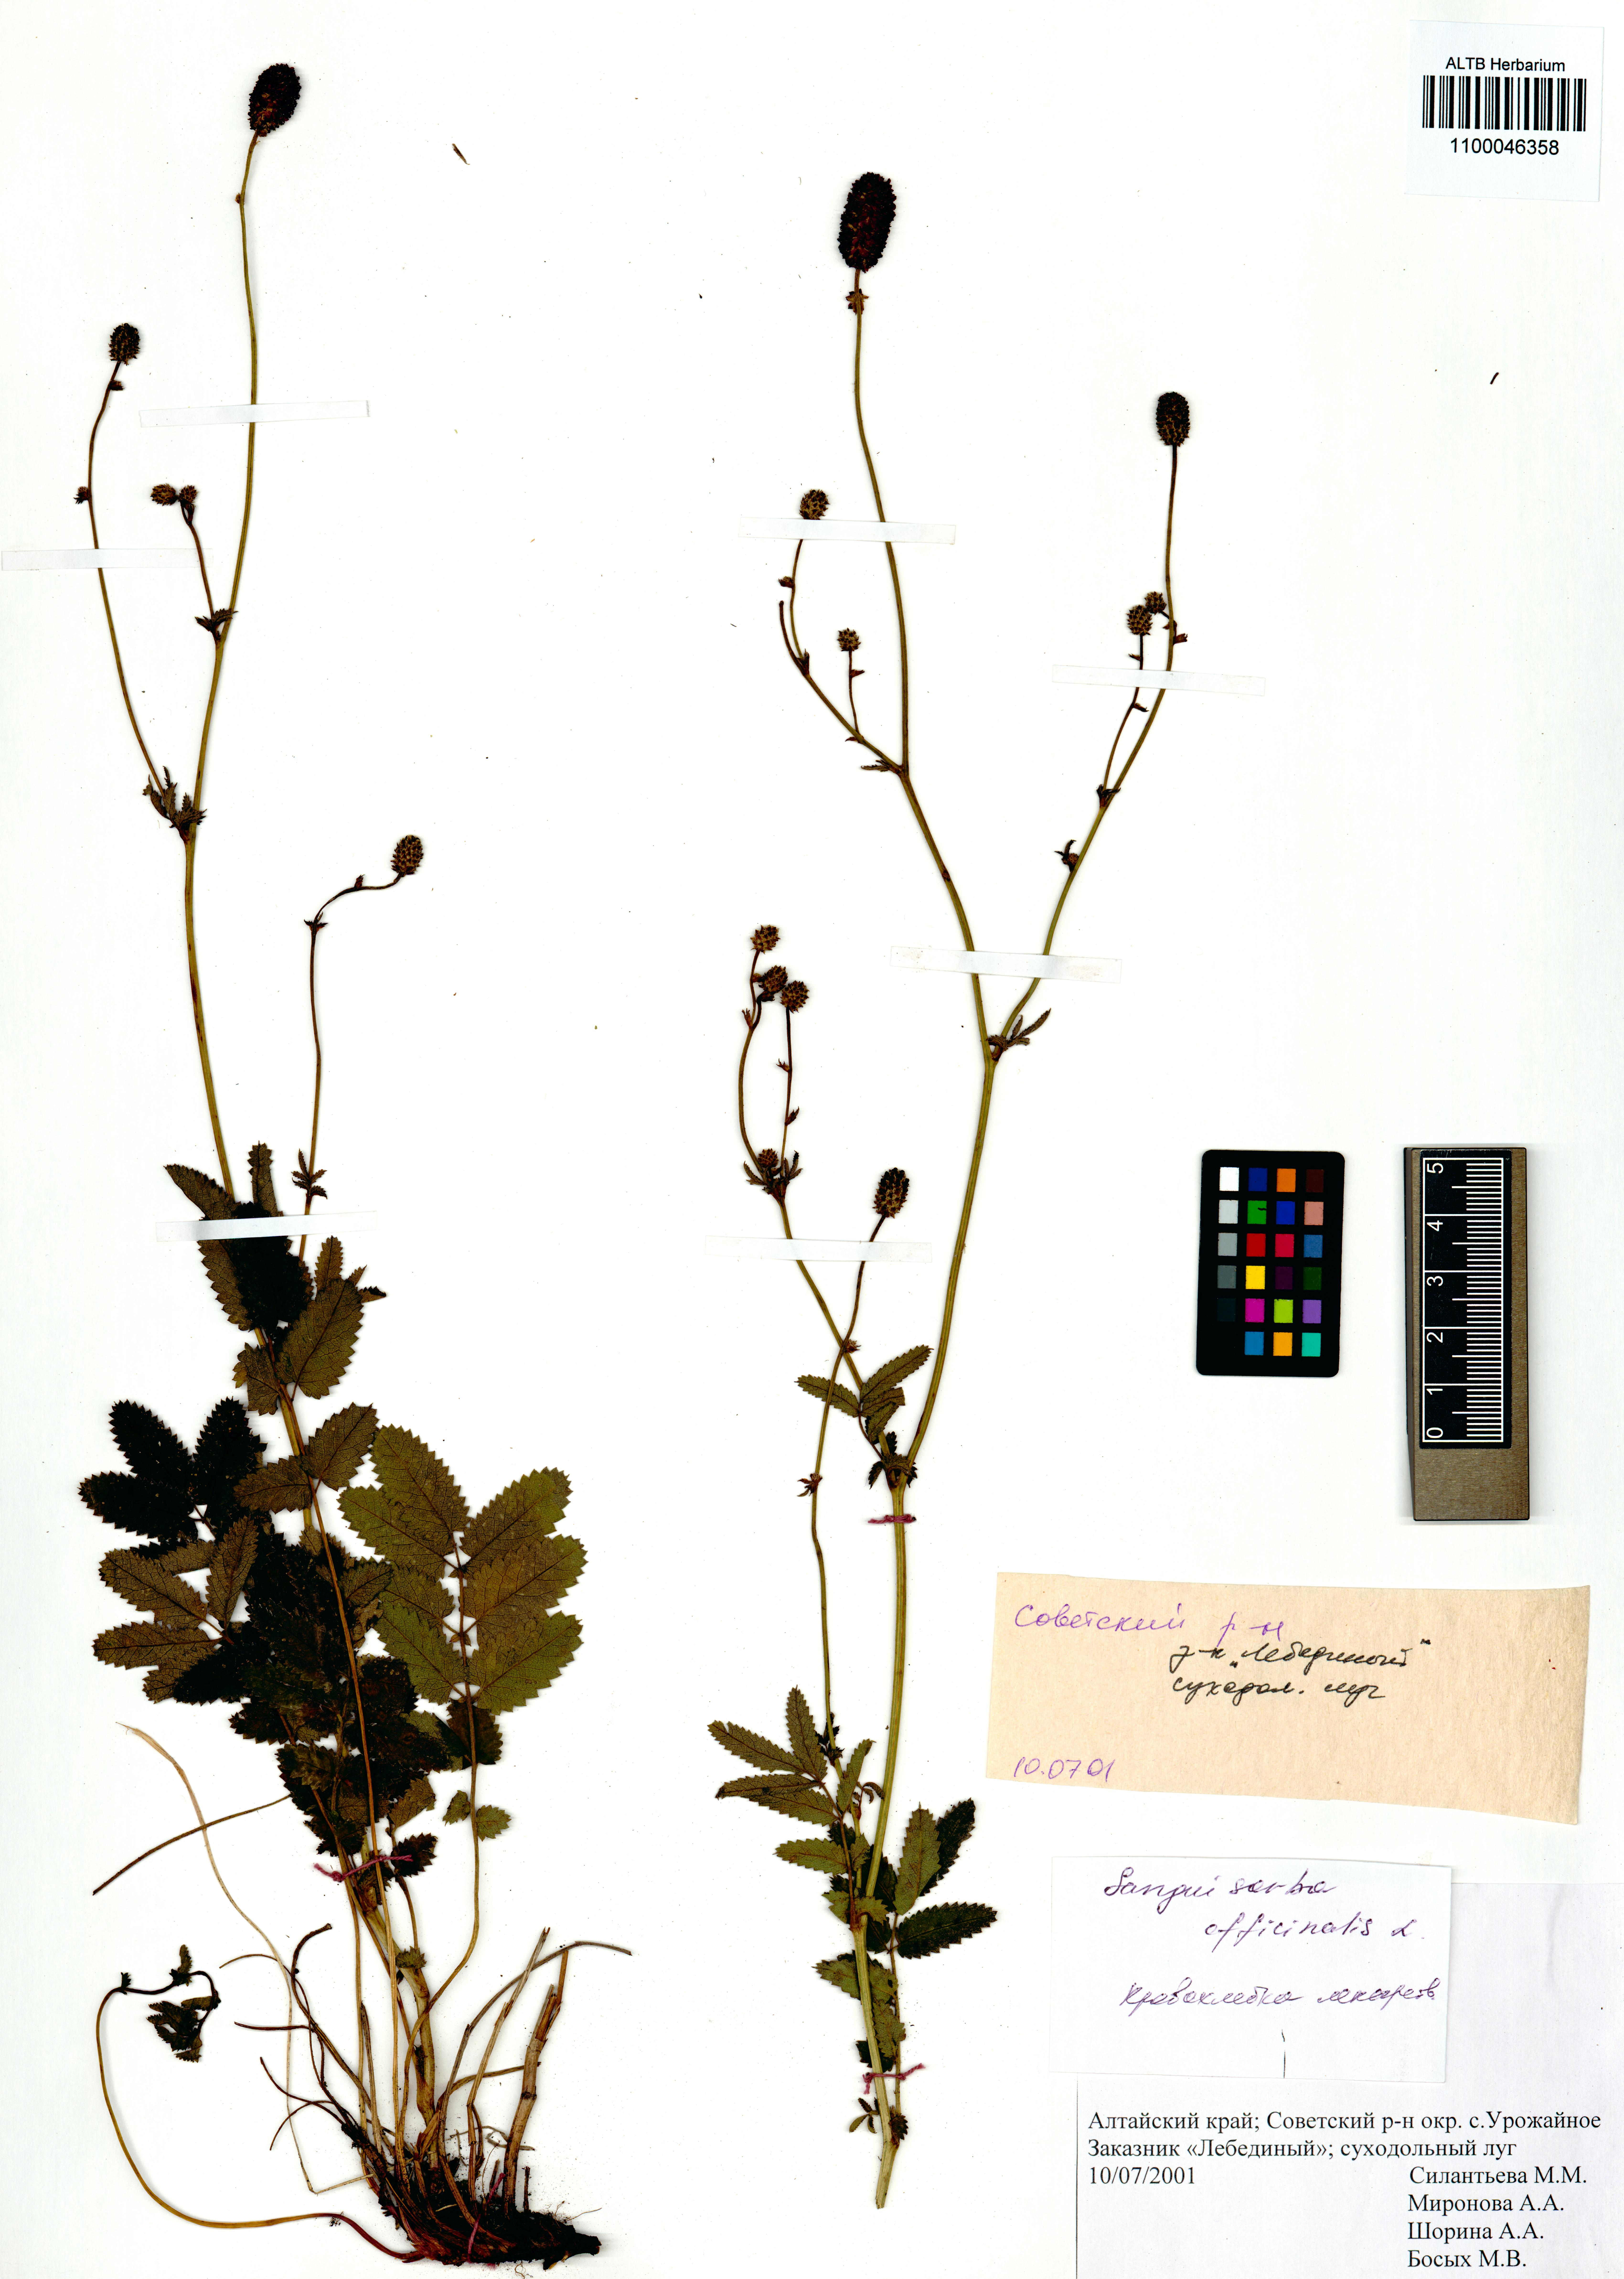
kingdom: Plantae
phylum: Tracheophyta
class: Magnoliopsida
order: Rosales
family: Rosaceae
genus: Sanguisorba
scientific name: Sanguisorba officinalis
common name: Great burnet
